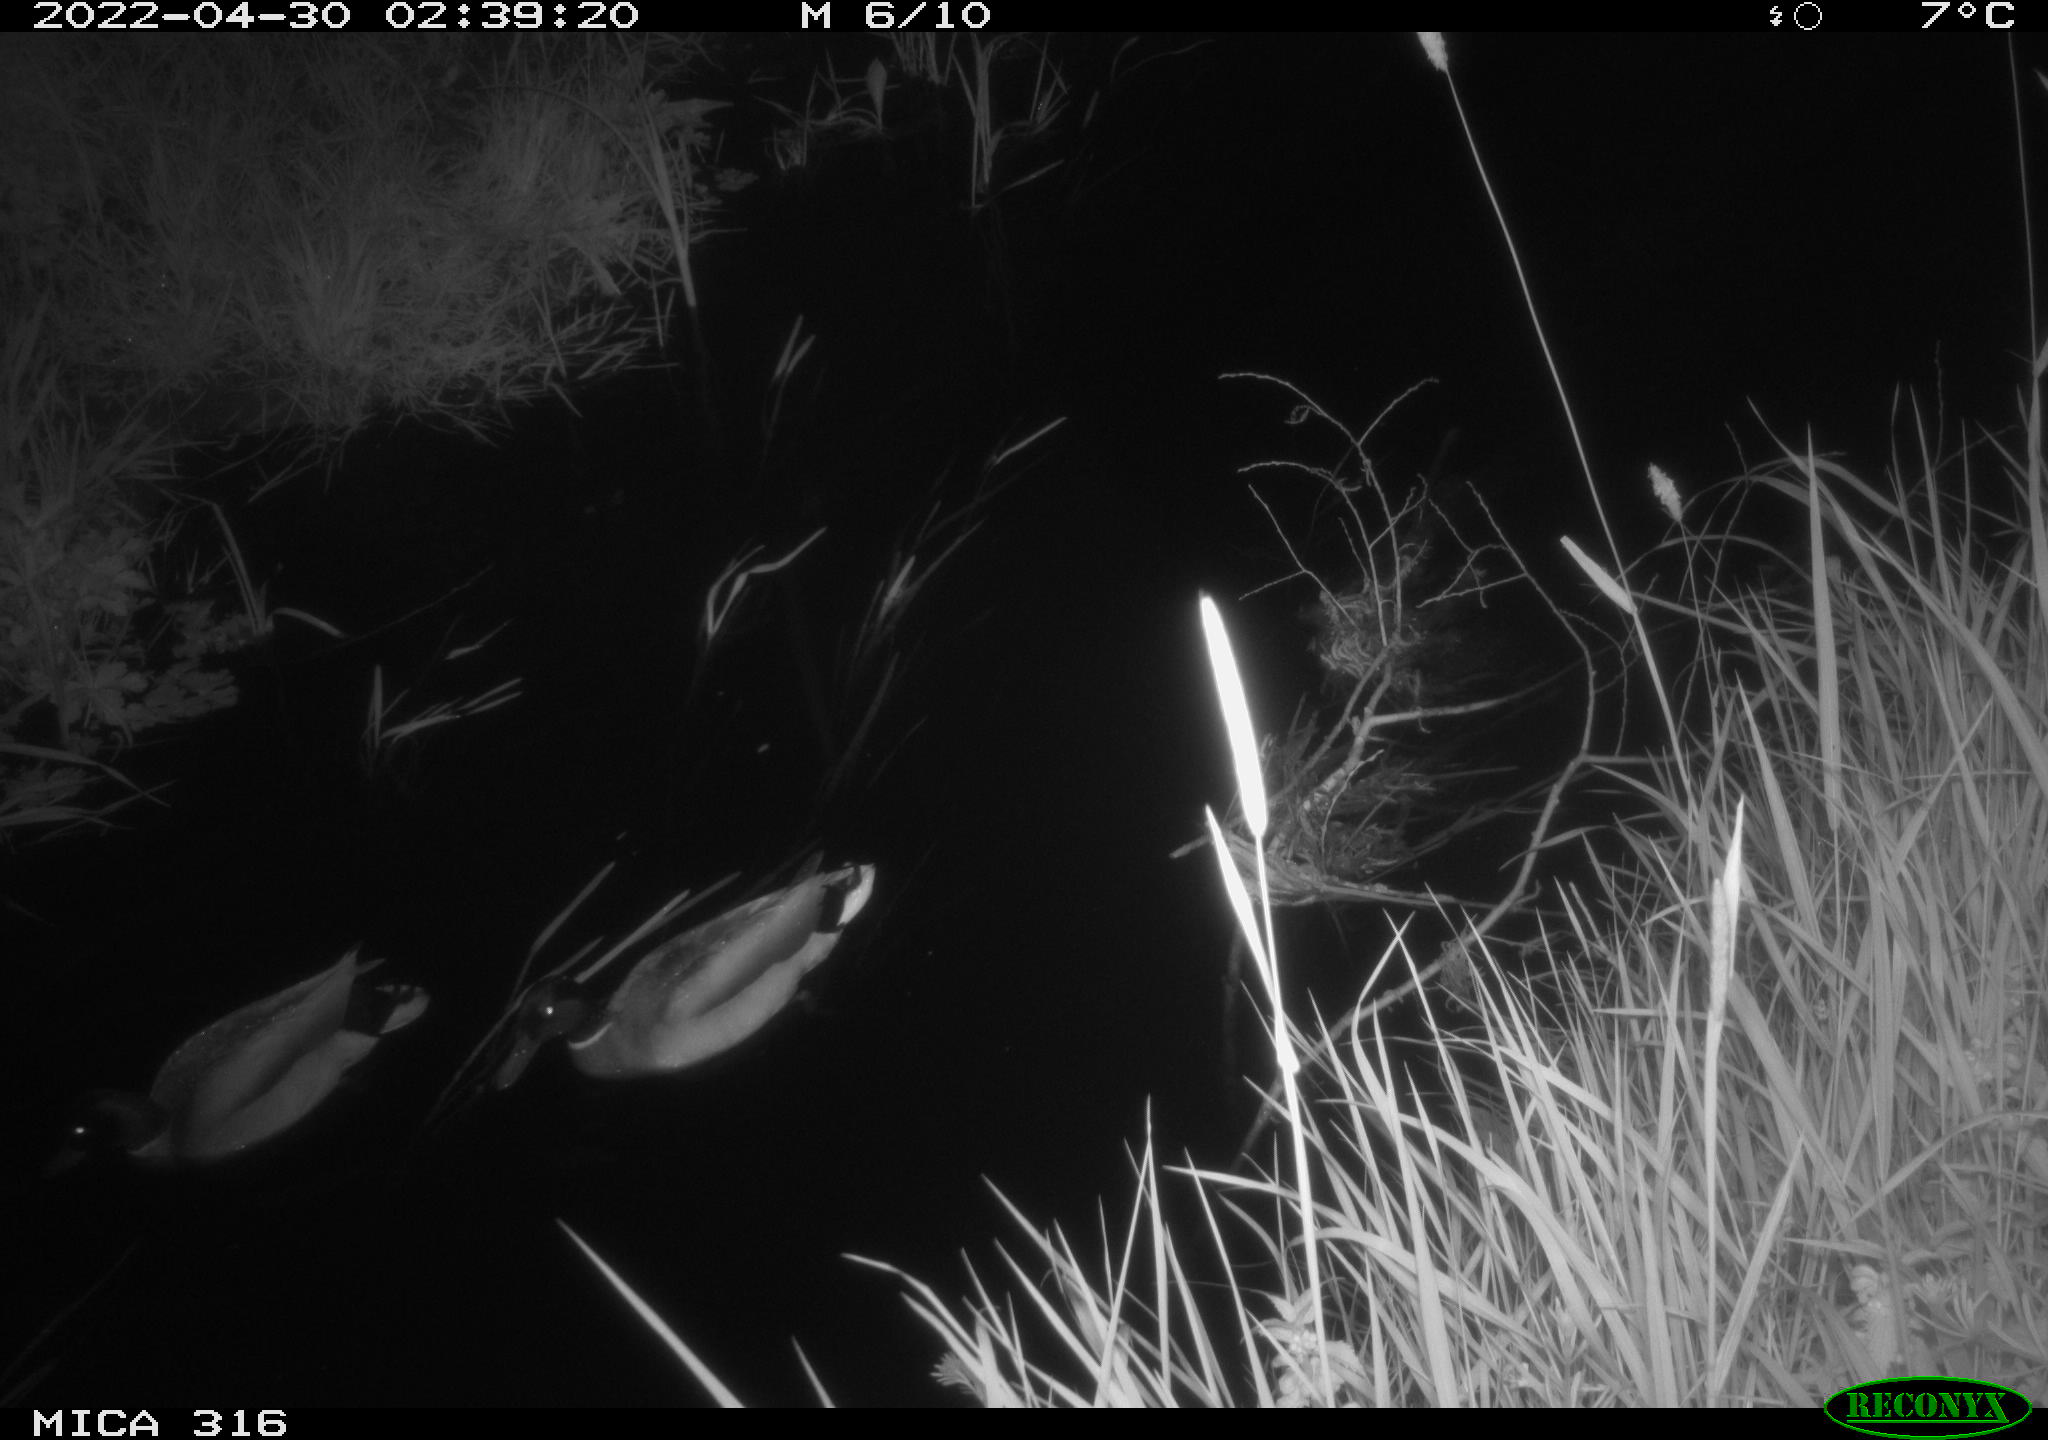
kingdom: Animalia
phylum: Chordata
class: Aves
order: Anseriformes
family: Anatidae
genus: Anas
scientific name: Anas platyrhynchos
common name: Mallard
